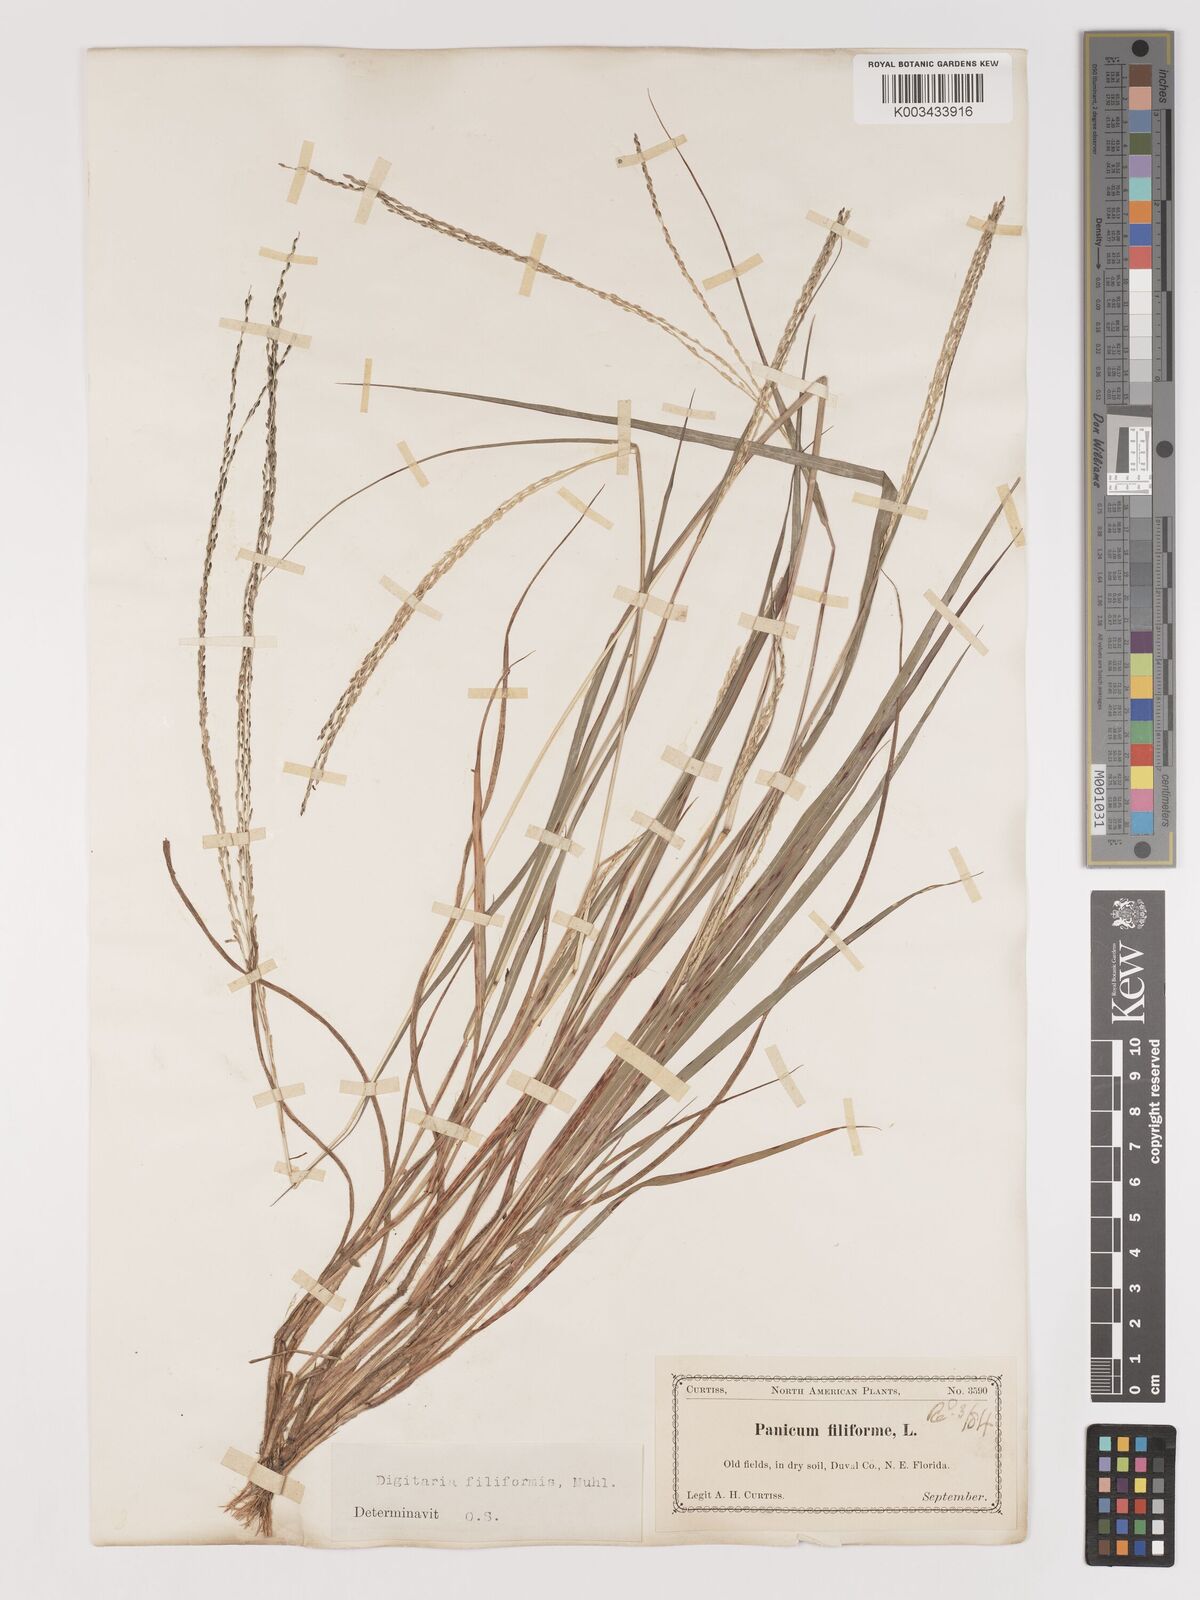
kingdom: Plantae
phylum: Tracheophyta
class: Liliopsida
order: Poales
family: Poaceae
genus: Digitaria
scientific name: Digitaria filiformis
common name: Slender crabgrass
